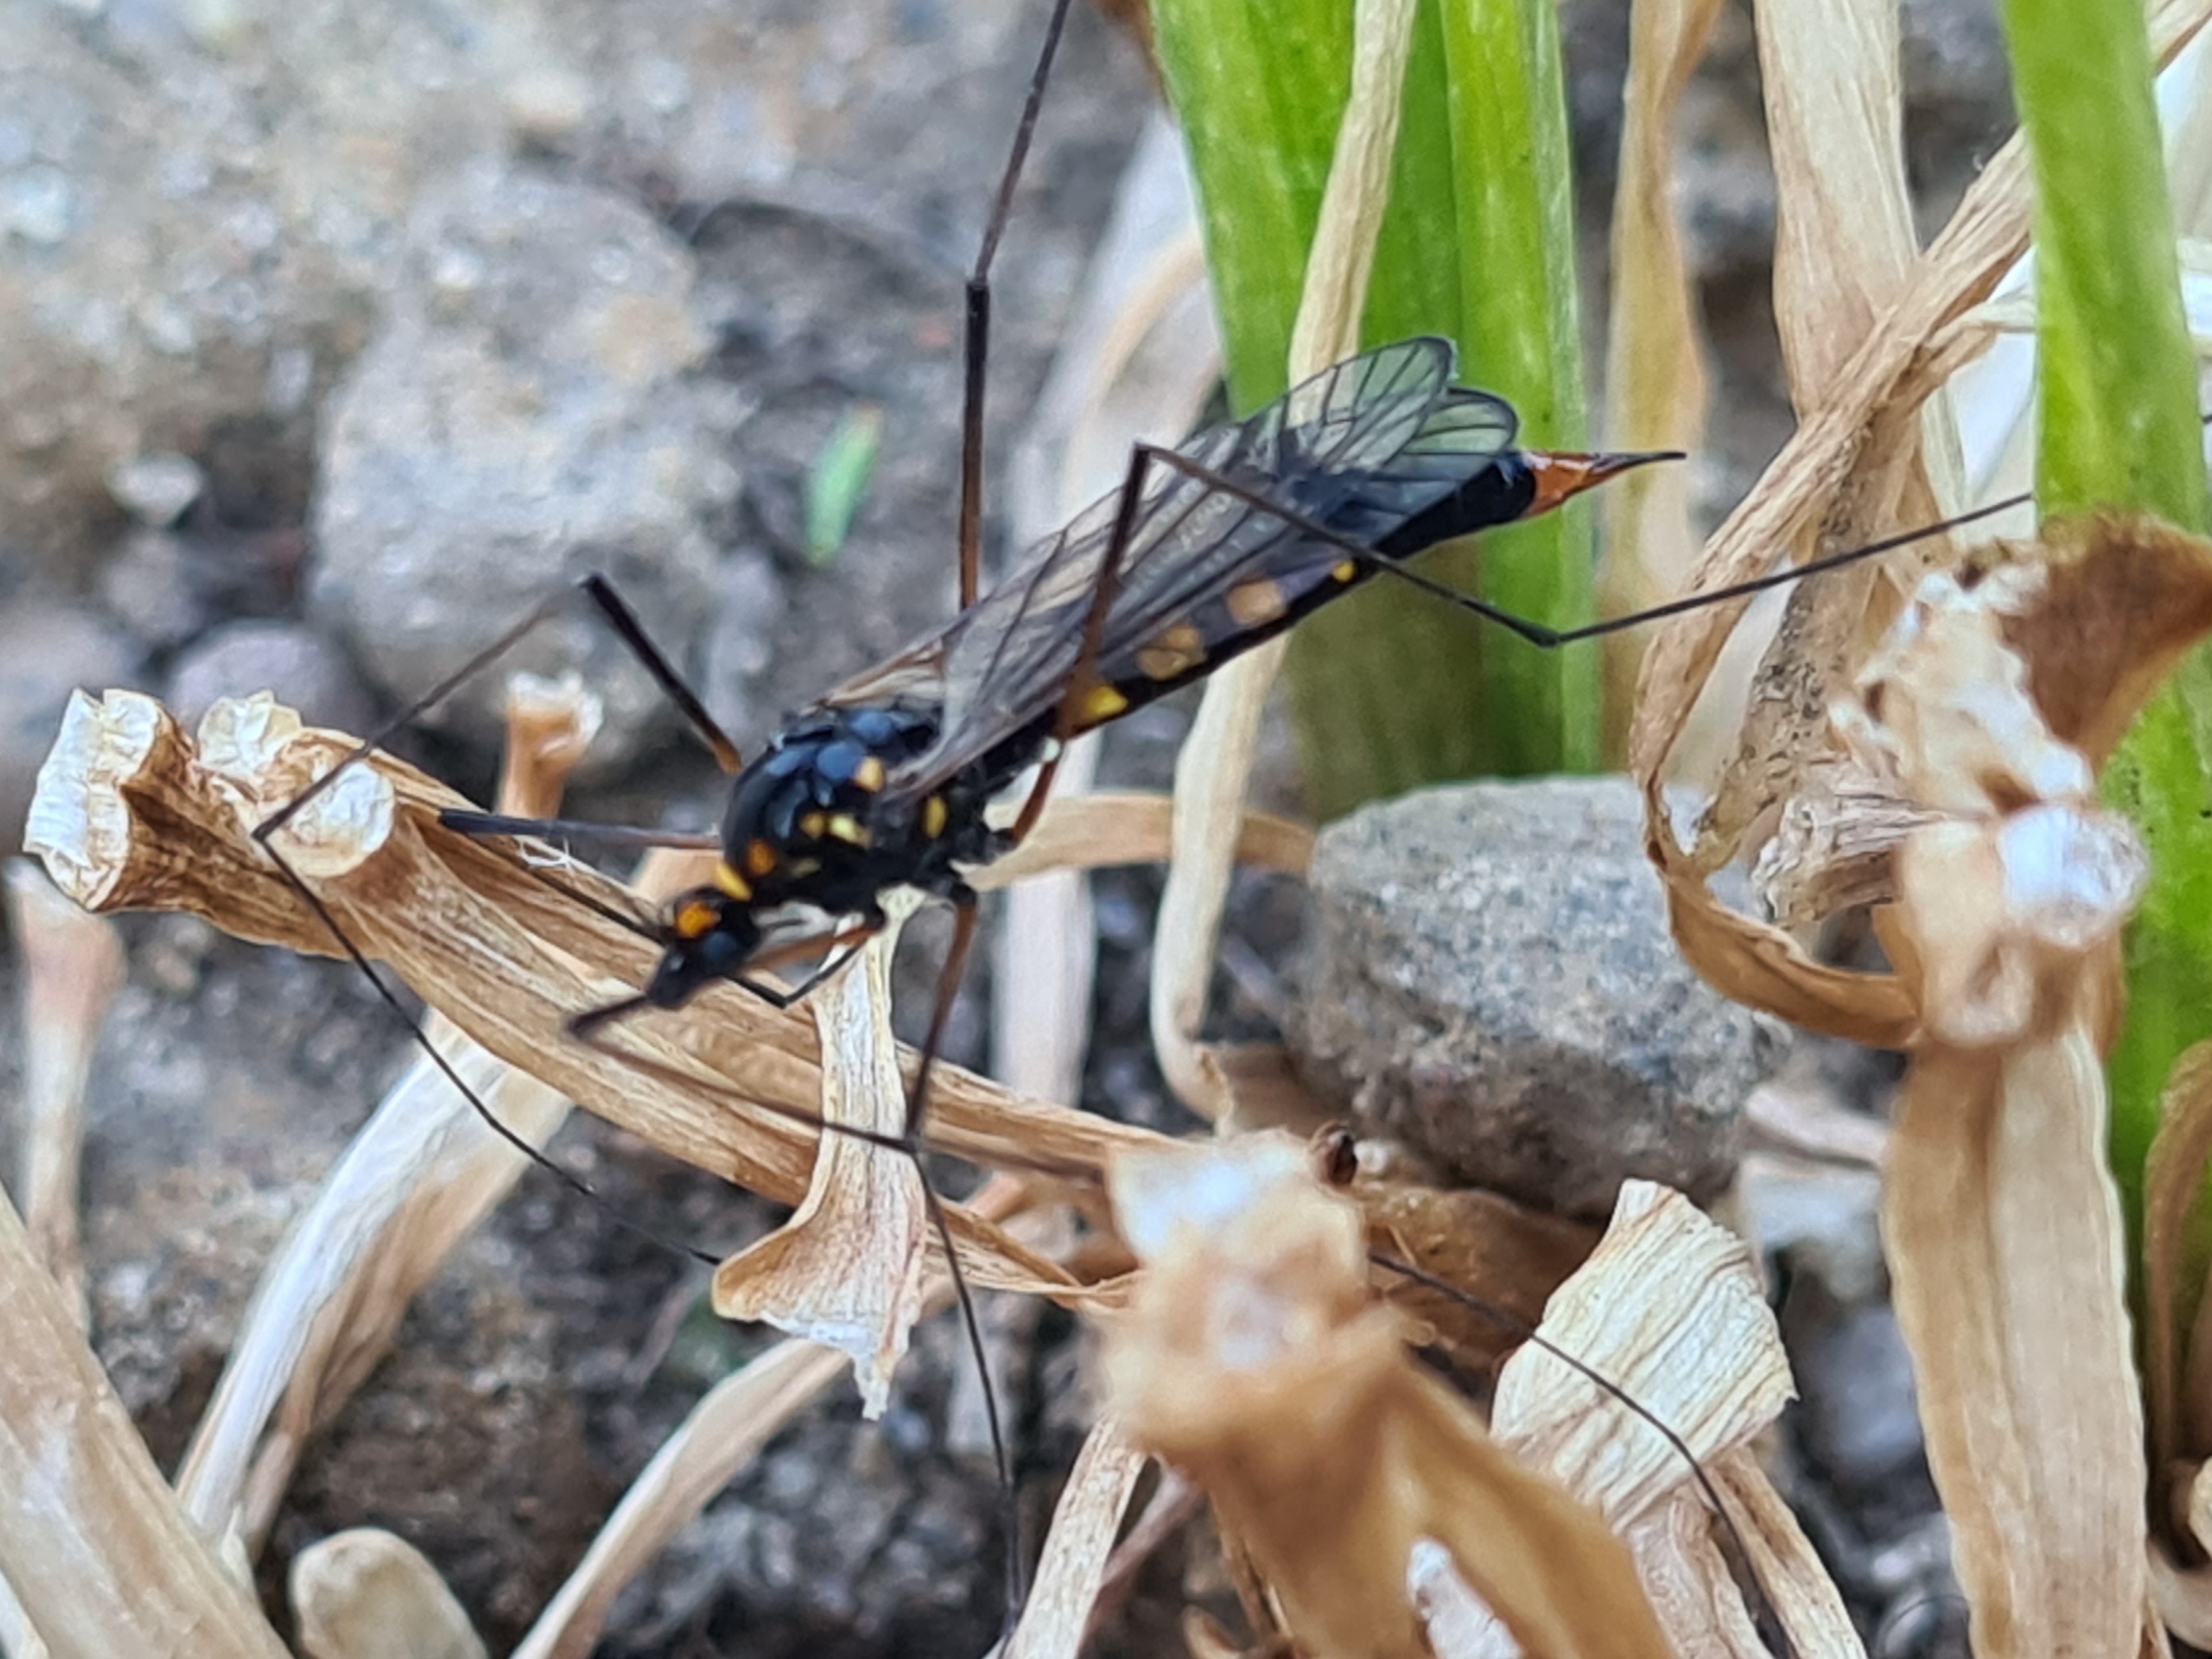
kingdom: Animalia
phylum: Arthropoda
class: Insecta
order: Diptera
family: Tipulidae
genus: Nephrotoma
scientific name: Nephrotoma crocata
